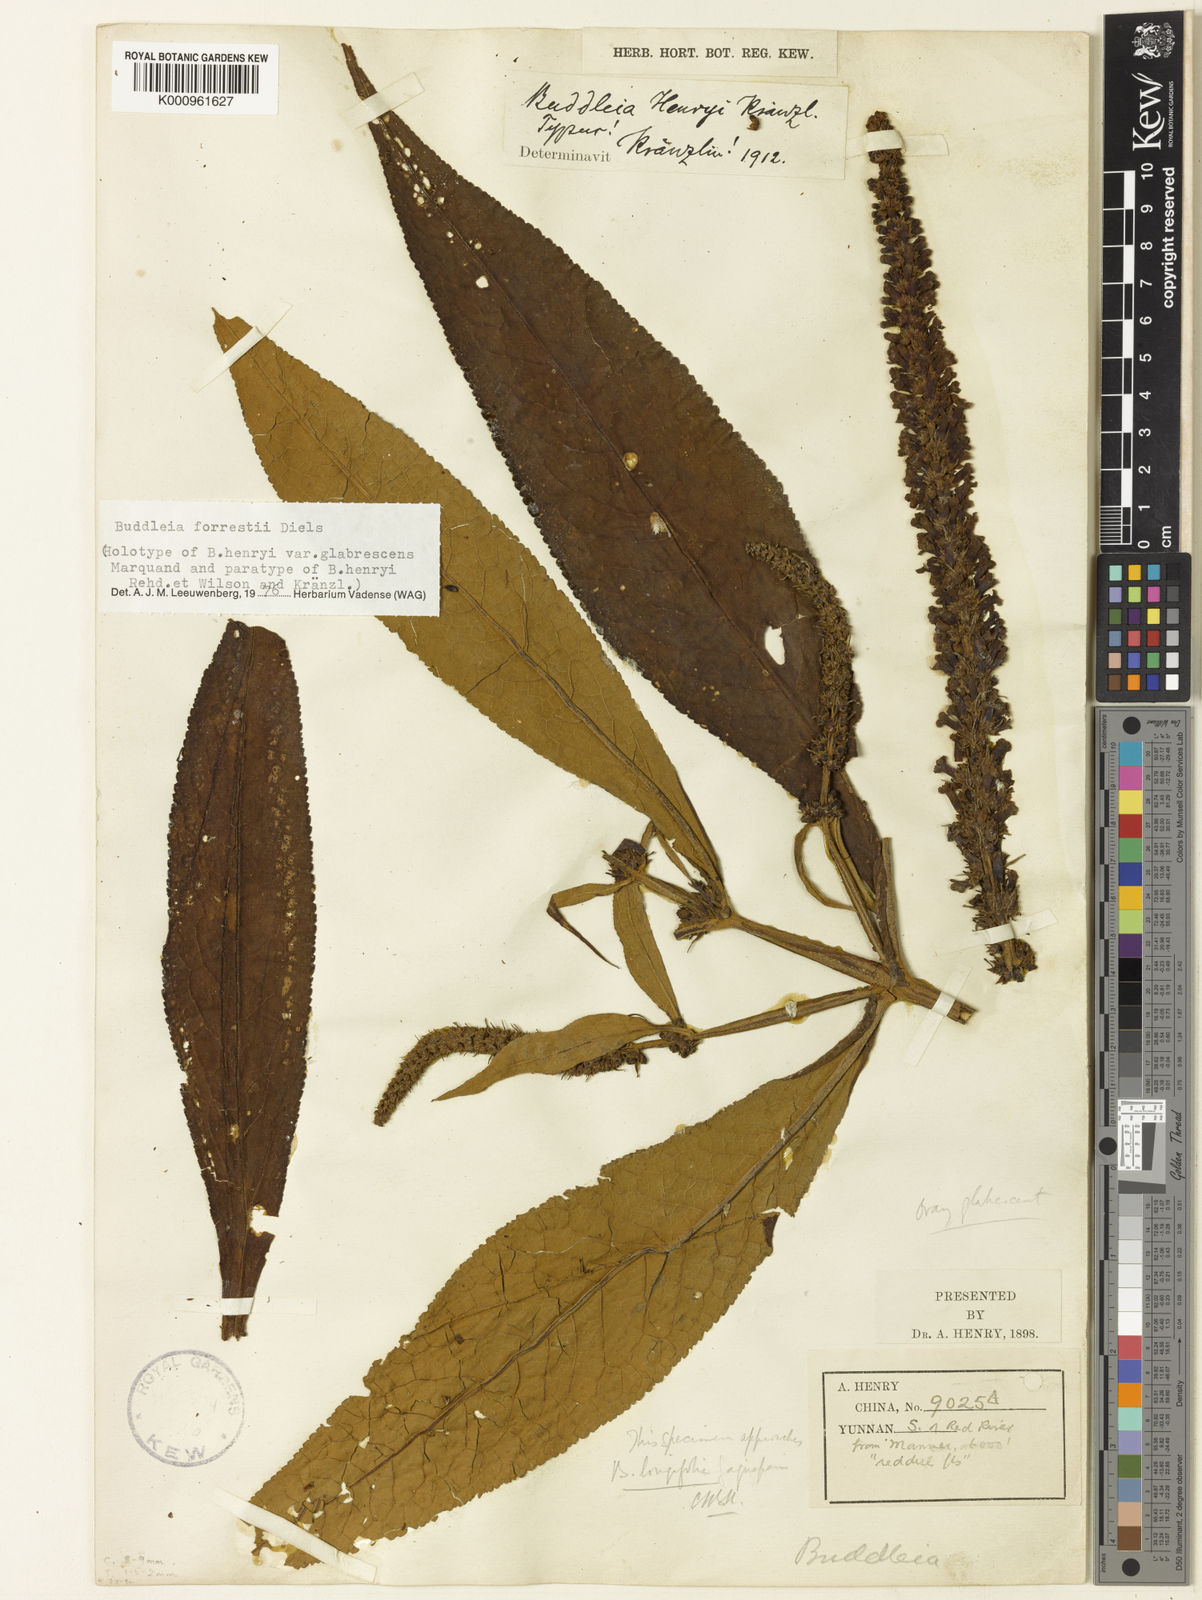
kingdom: Plantae
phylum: Tracheophyta
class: Magnoliopsida
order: Lamiales
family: Scrophulariaceae
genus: Buddleja
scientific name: Buddleja forrestii
